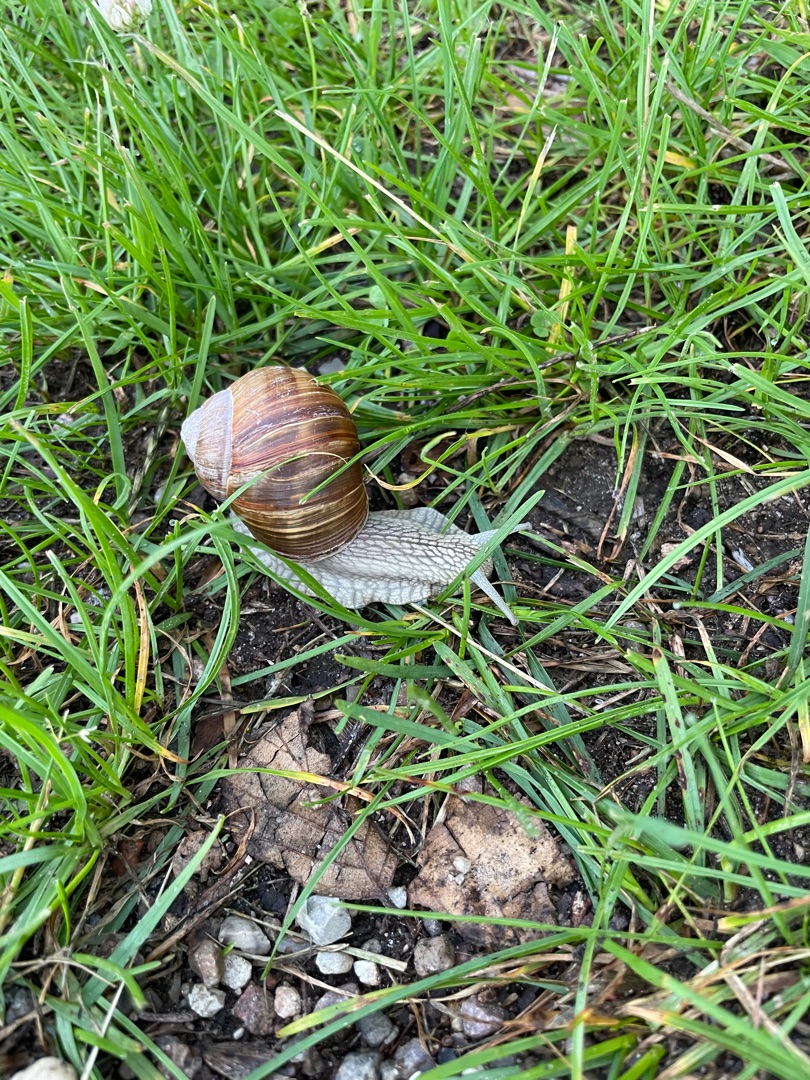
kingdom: Animalia
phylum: Mollusca
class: Gastropoda
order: Stylommatophora
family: Helicidae
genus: Helix
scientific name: Helix pomatia
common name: Vinbjergsnegl
